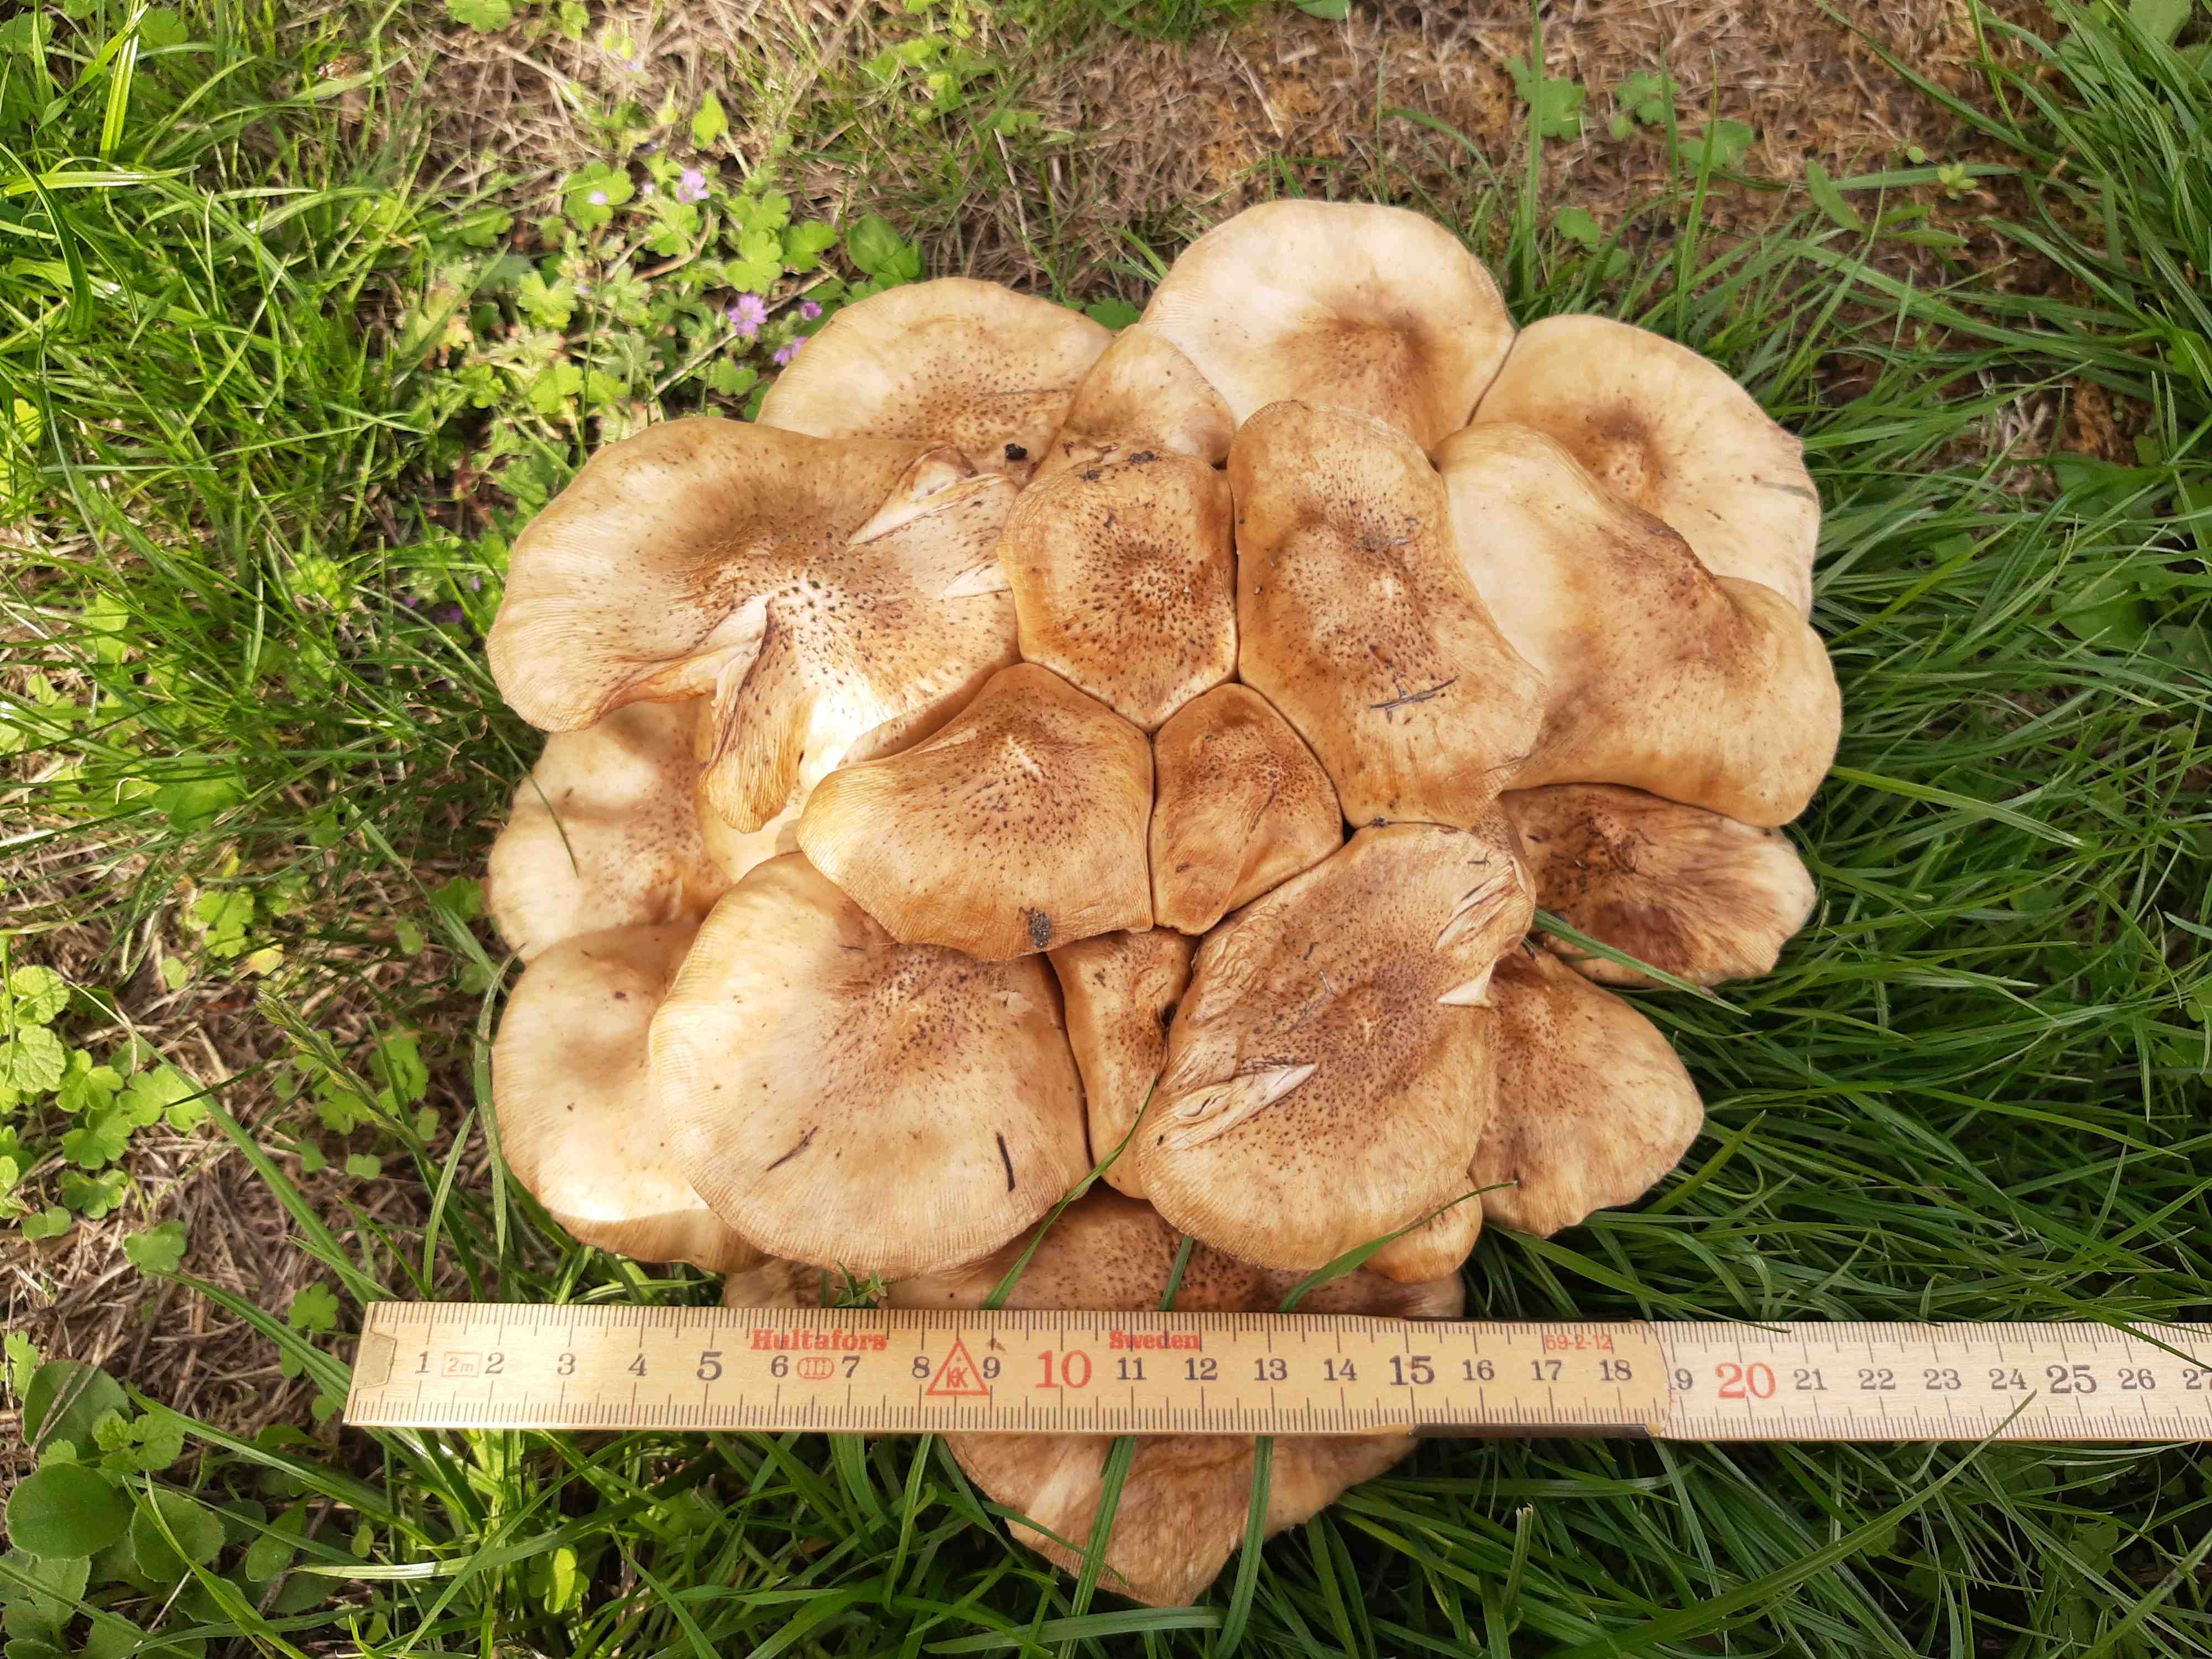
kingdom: Fungi
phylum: Basidiomycota
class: Agaricomycetes
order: Agaricales
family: Pluteaceae
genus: Pluteus
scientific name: Pluteus petasatus
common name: savsmulds-skærmhat
